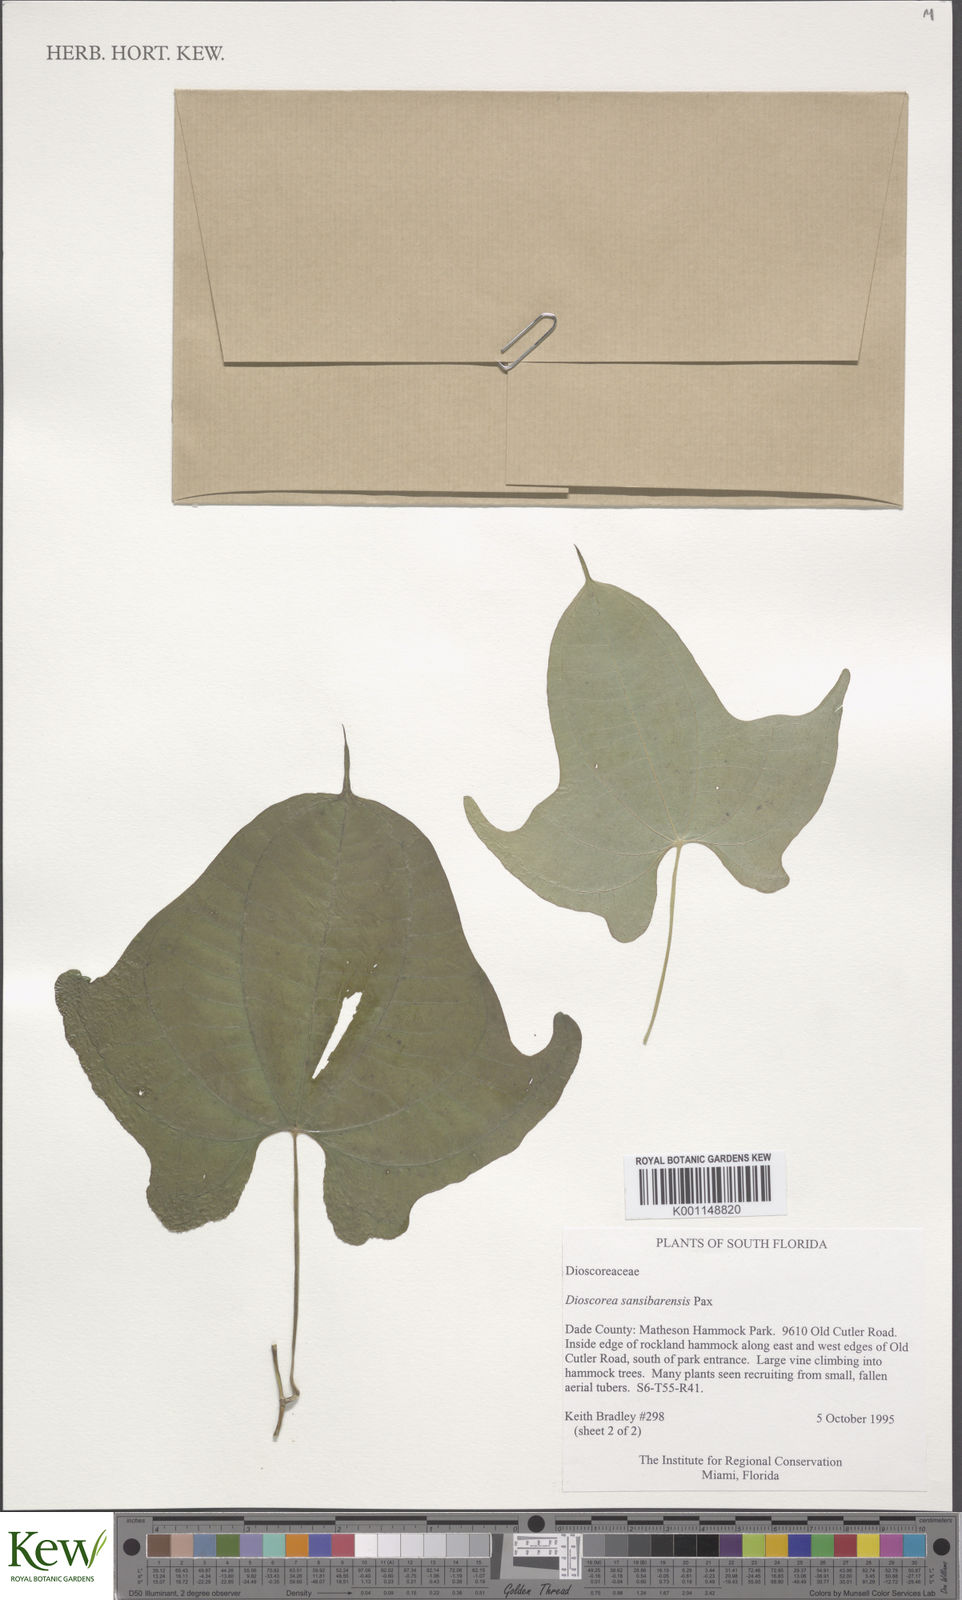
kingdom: Plantae
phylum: Tracheophyta
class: Liliopsida
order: Dioscoreales
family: Dioscoreaceae
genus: Dioscorea
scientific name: Dioscorea sansibarensis
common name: Zanzibar yam
